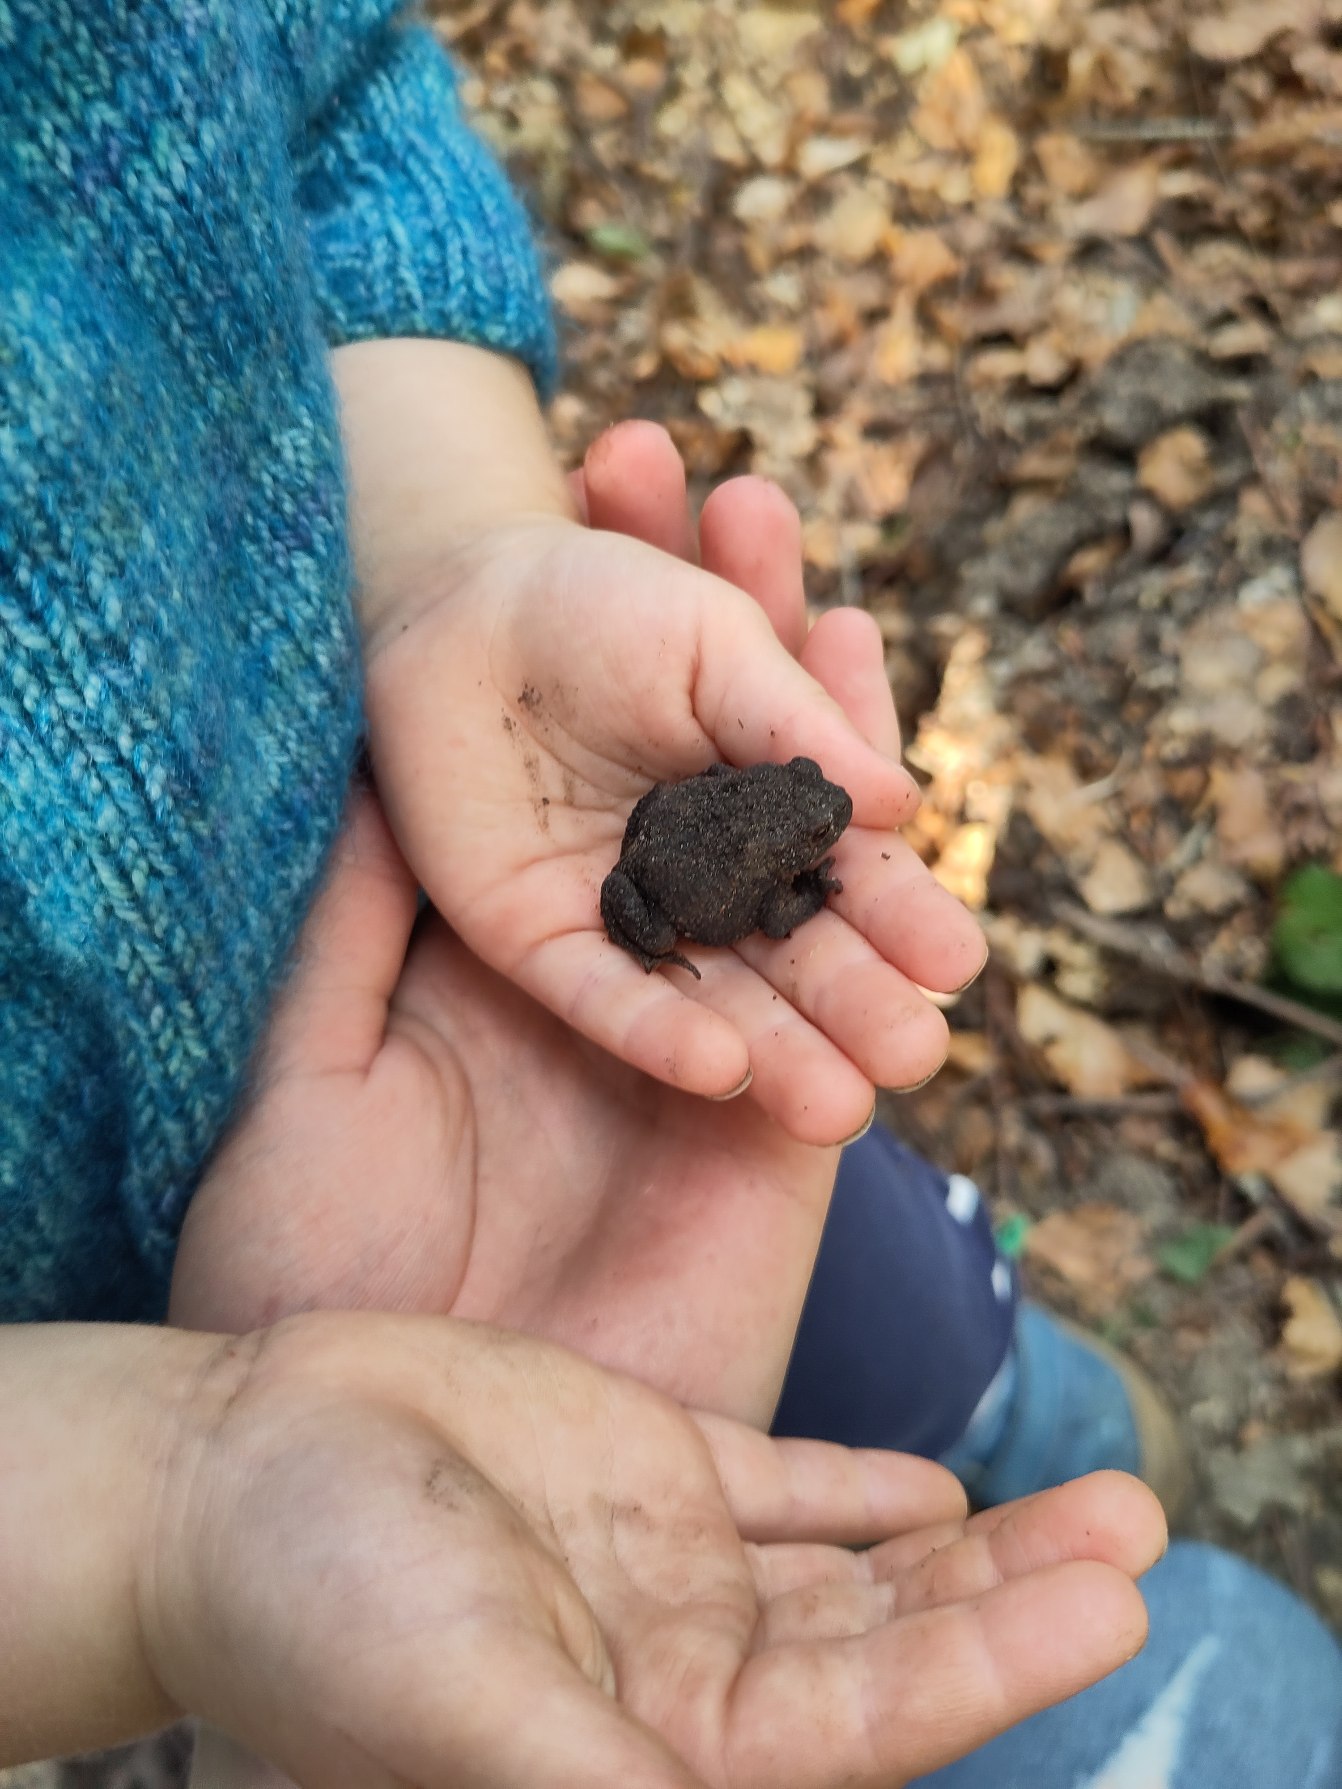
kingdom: Animalia
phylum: Chordata
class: Amphibia
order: Anura
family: Bufonidae
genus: Bufo
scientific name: Bufo bufo
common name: Skrubtudse
